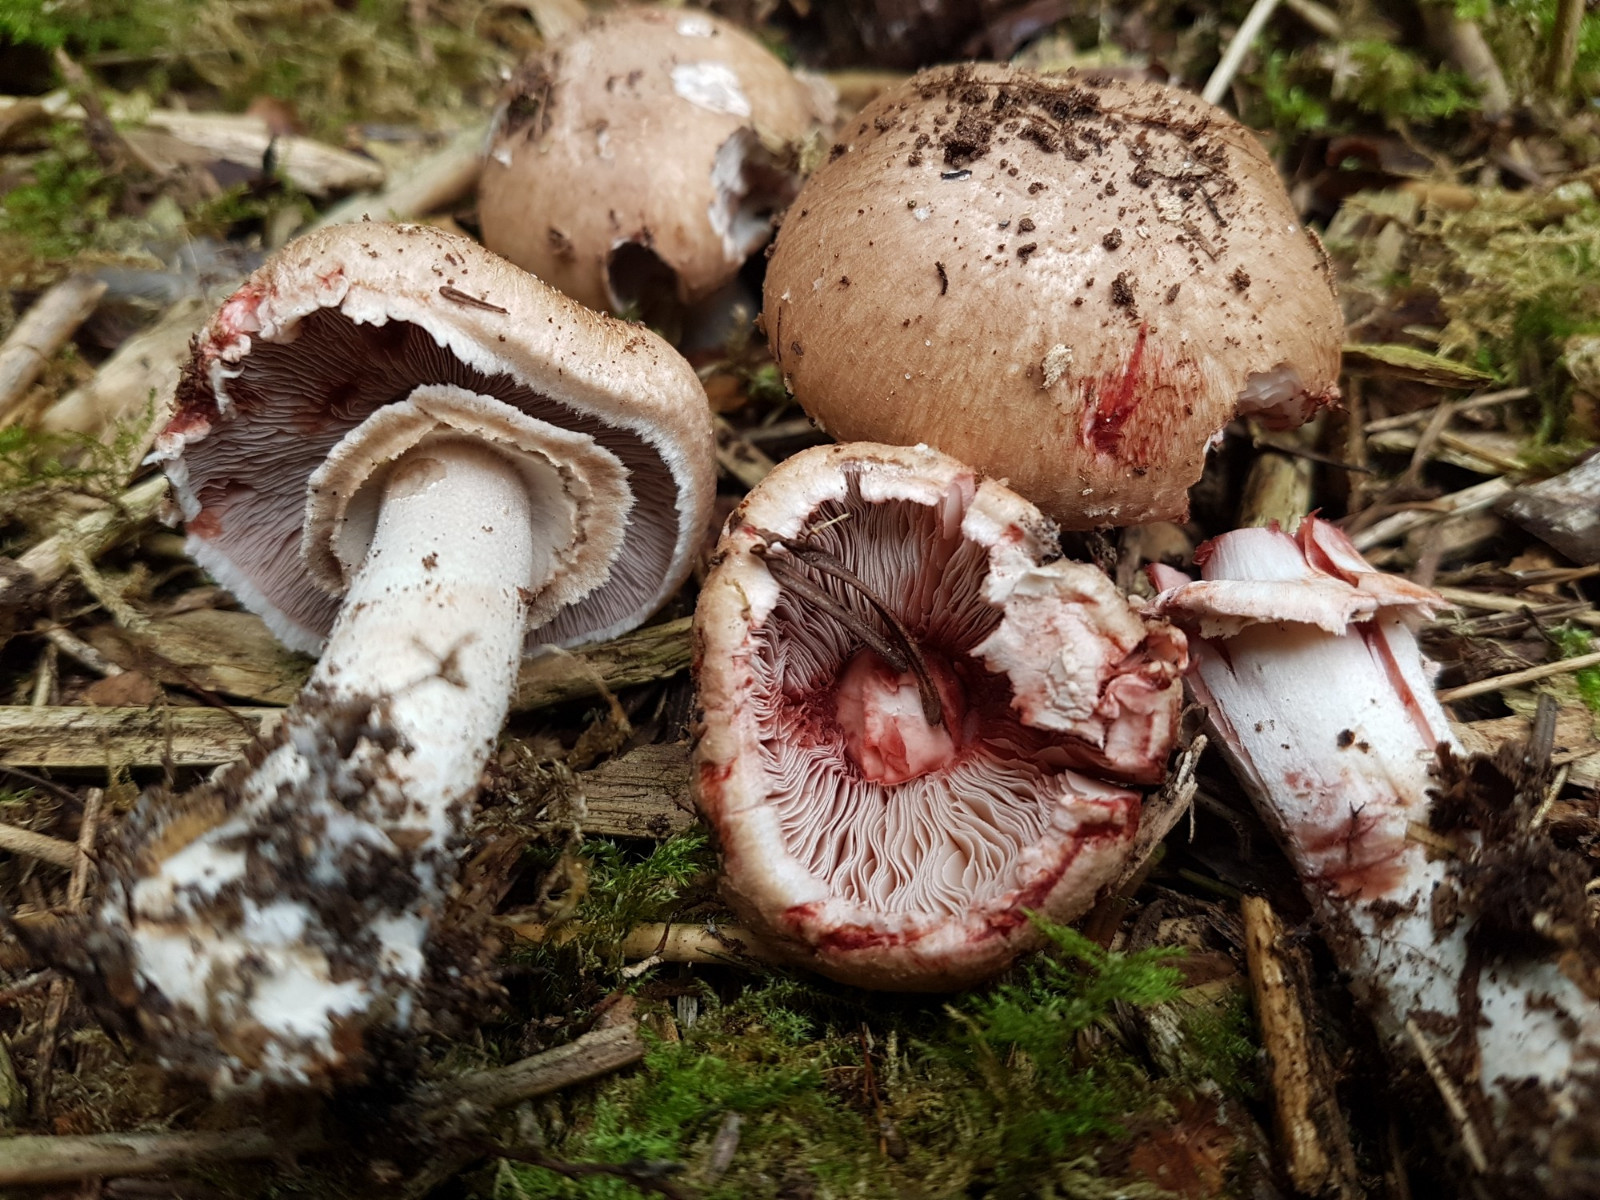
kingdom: Fungi
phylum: Basidiomycota
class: Agaricomycetes
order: Agaricales
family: Agaricaceae
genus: Agaricus
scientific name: Agaricus langei
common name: stor blod-champignon
